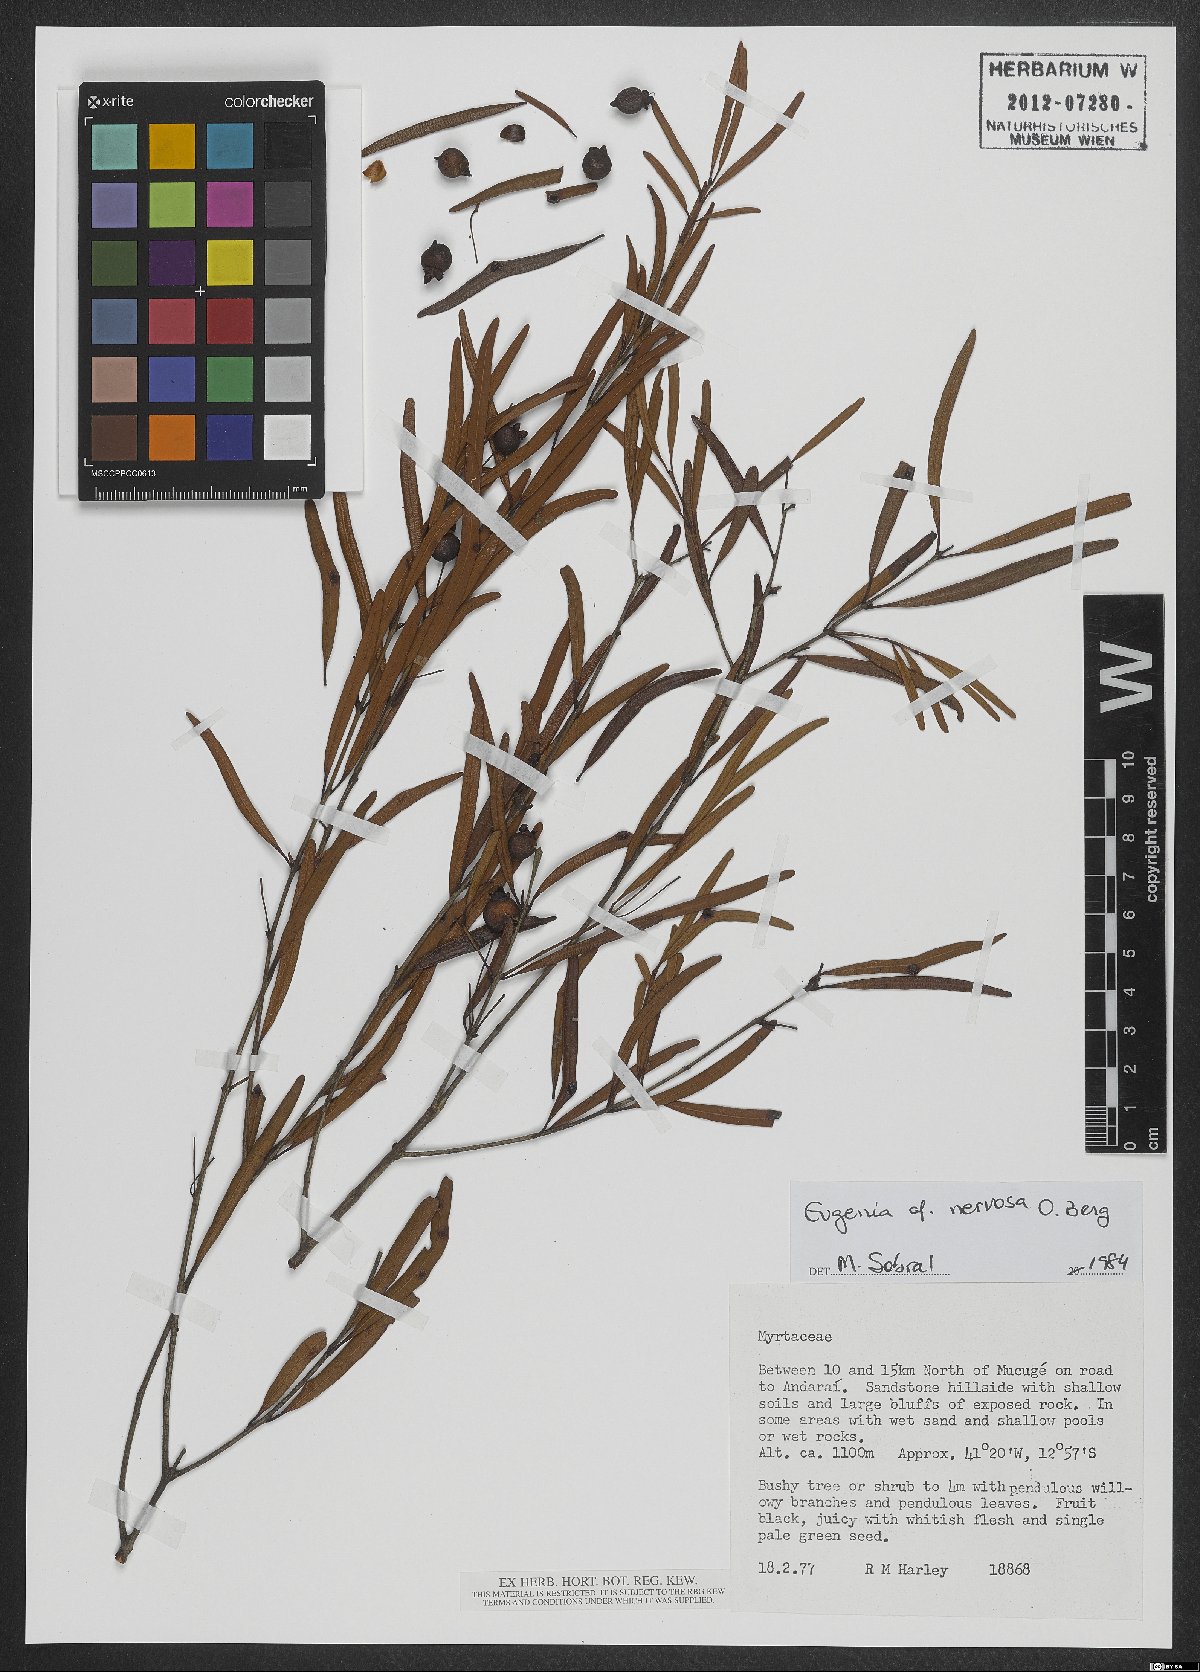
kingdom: Plantae
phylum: Tracheophyta
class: Magnoliopsida
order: Myrtales
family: Myrtaceae
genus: Eugenia
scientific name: Eugenia nervosa
